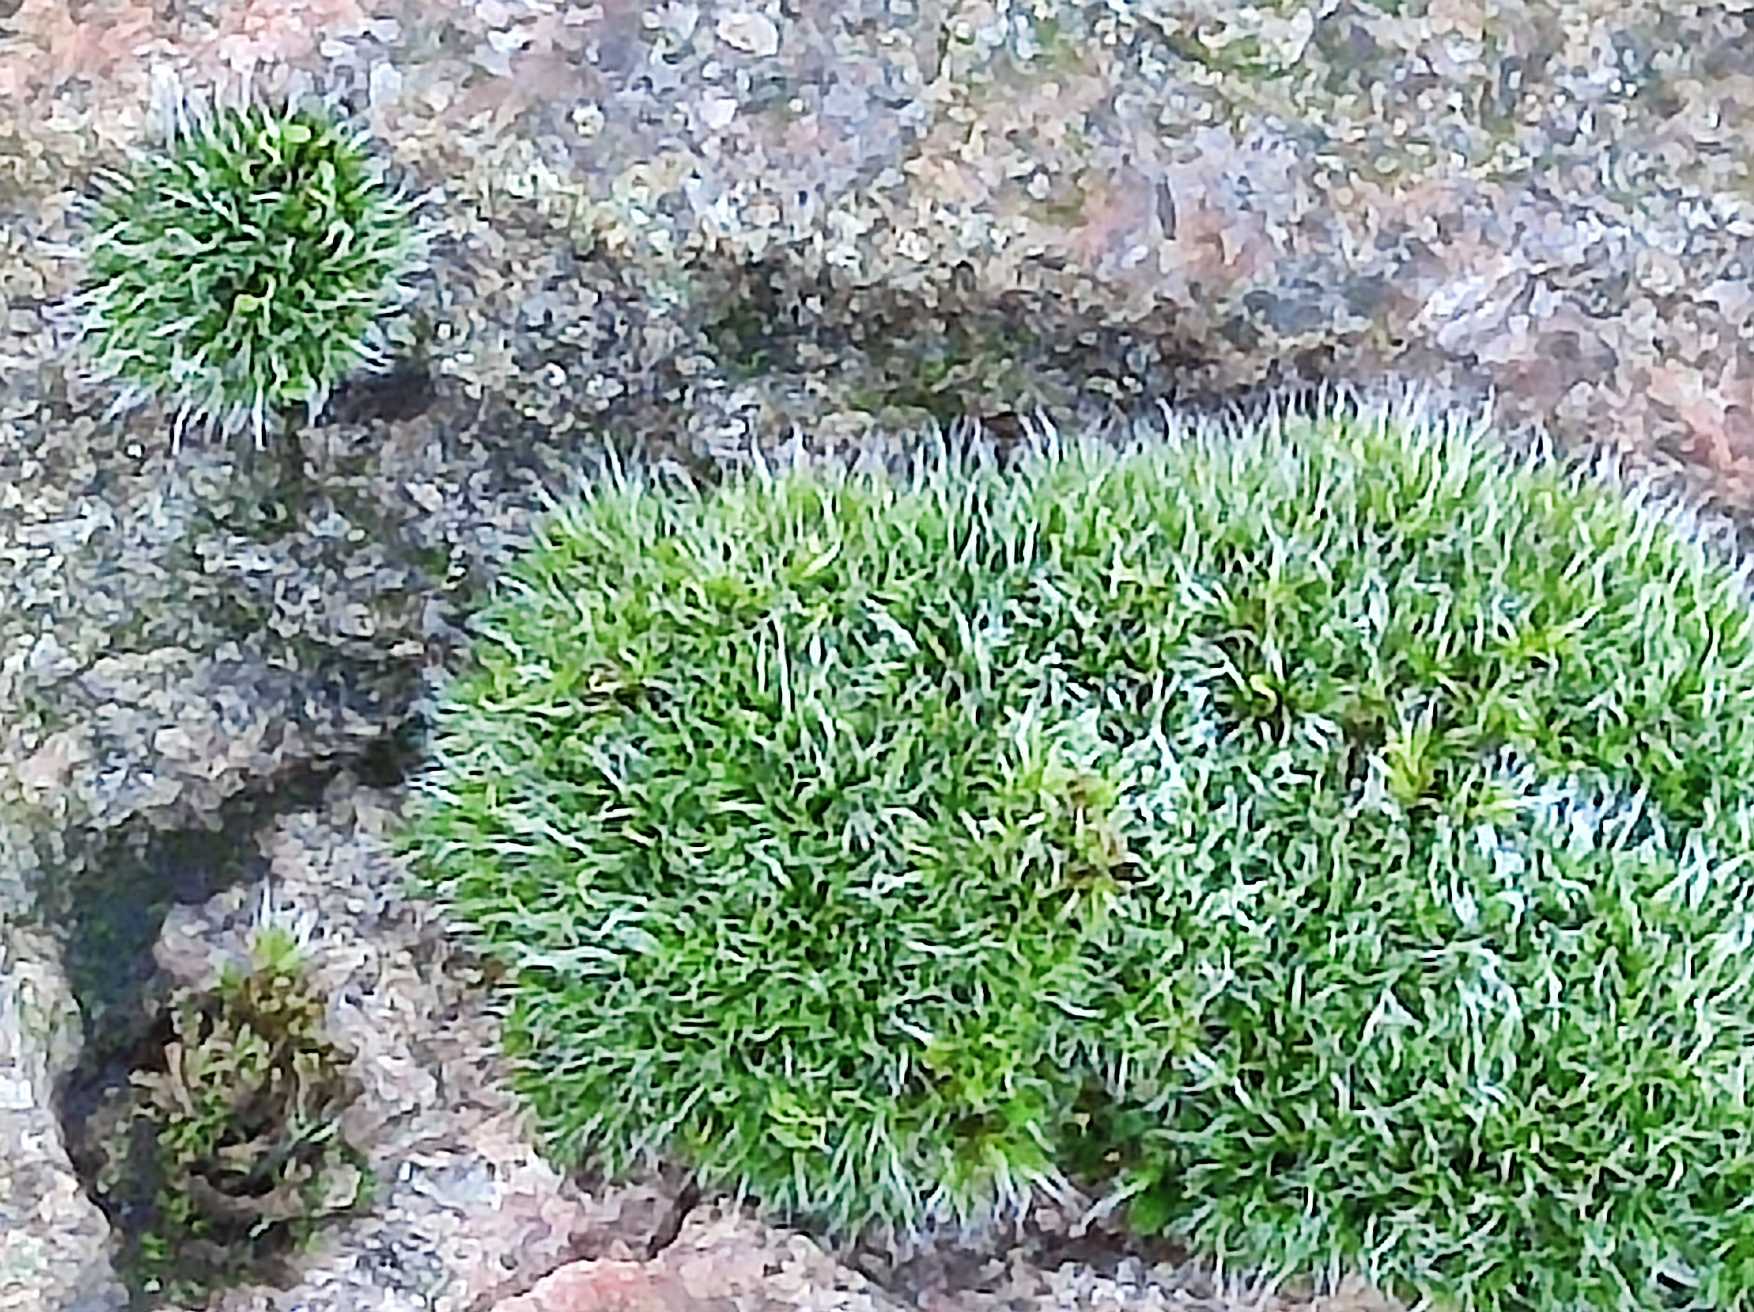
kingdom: Plantae
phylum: Bryophyta
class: Bryopsida
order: Grimmiales
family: Grimmiaceae
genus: Grimmia
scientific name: Grimmia pulvinata
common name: Pude-gråmos
